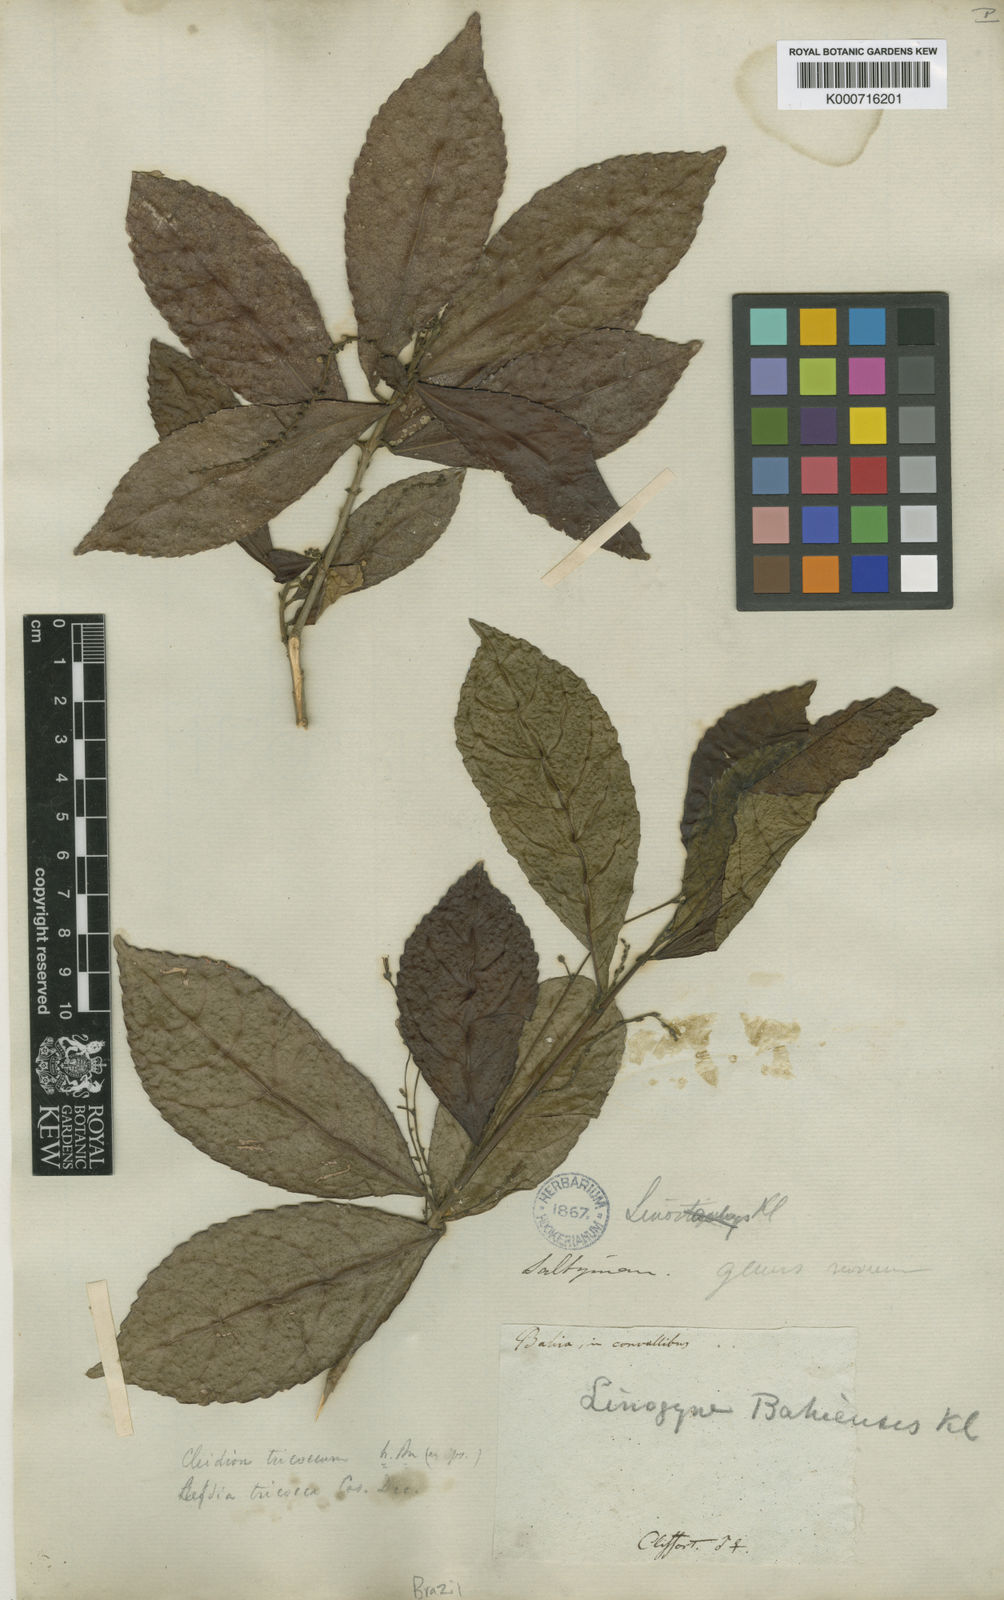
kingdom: Plantae
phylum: Tracheophyta
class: Magnoliopsida
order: Malpighiales
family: Euphorbiaceae
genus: Cleidion
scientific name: Cleidion tricoccum
